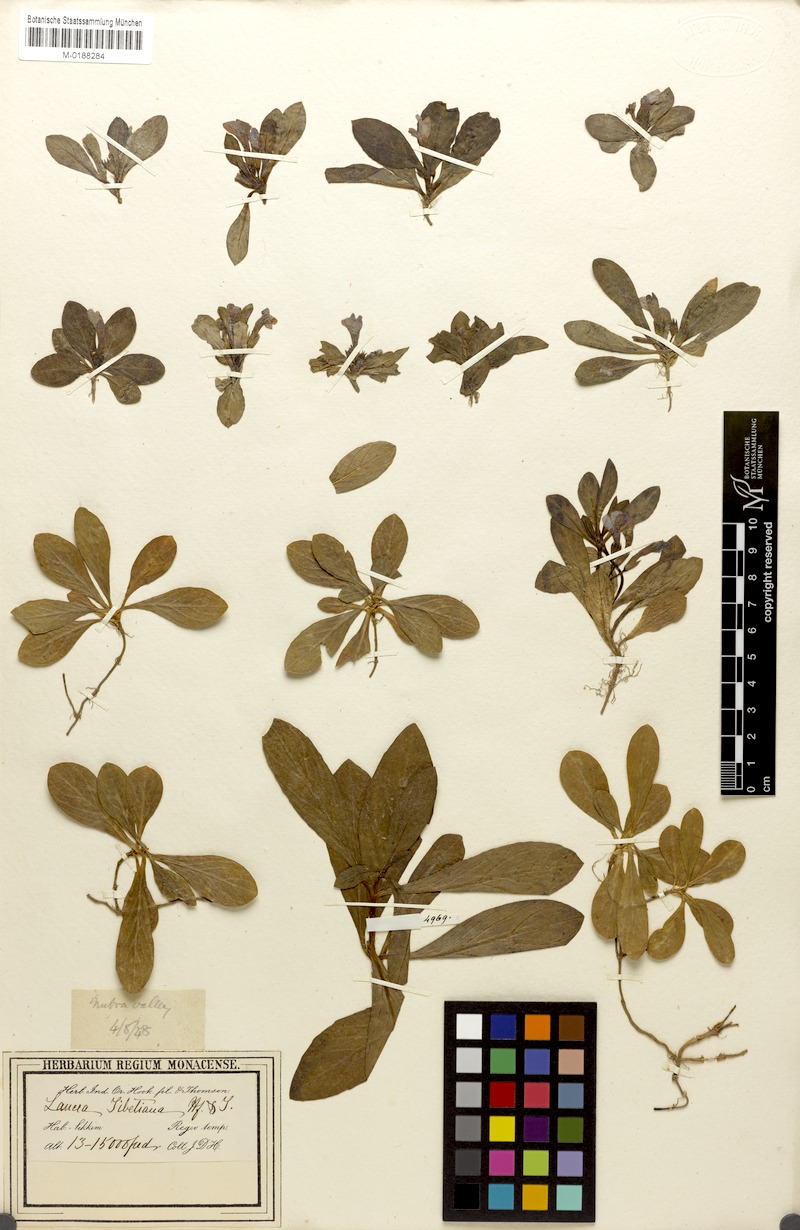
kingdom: Plantae
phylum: Tracheophyta
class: Magnoliopsida
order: Lamiales
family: Mazaceae
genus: Lancea
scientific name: Lancea tibetica
